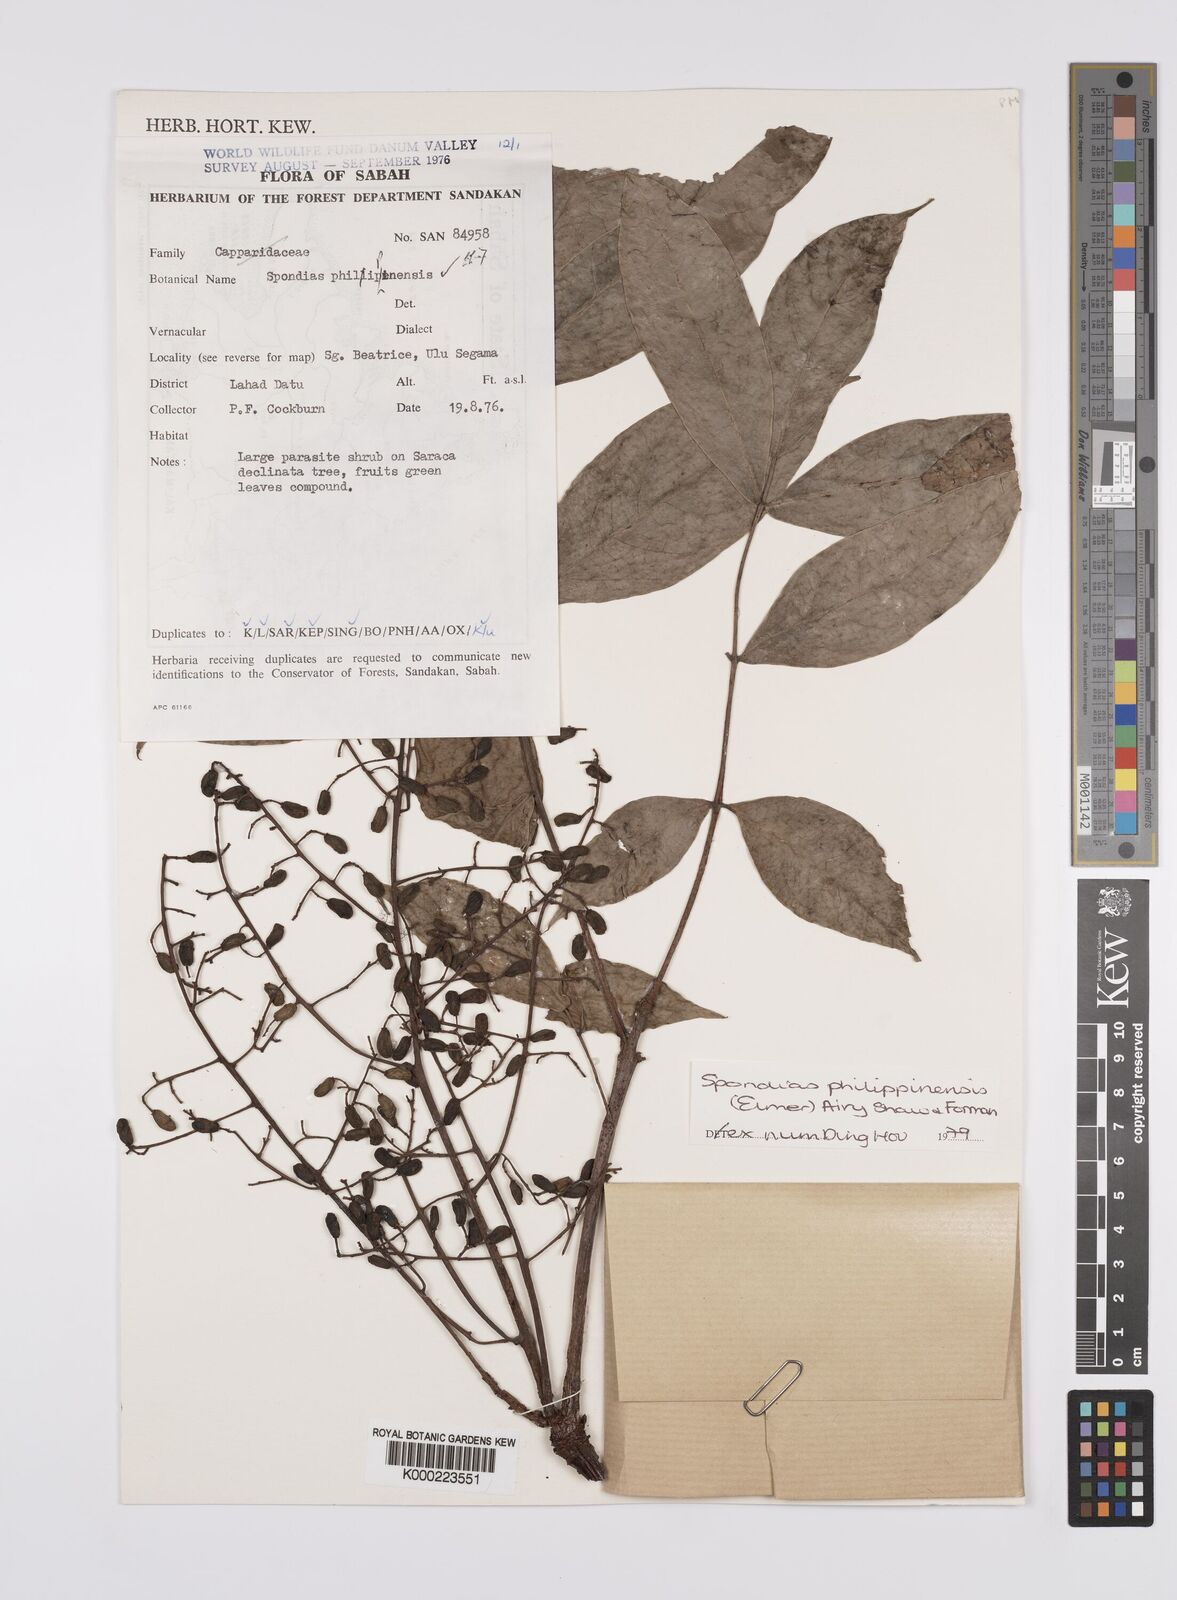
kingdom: Plantae
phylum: Tracheophyta
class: Magnoliopsida
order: Sapindales
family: Anacardiaceae
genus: Spondias
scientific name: Spondias philippinensis
